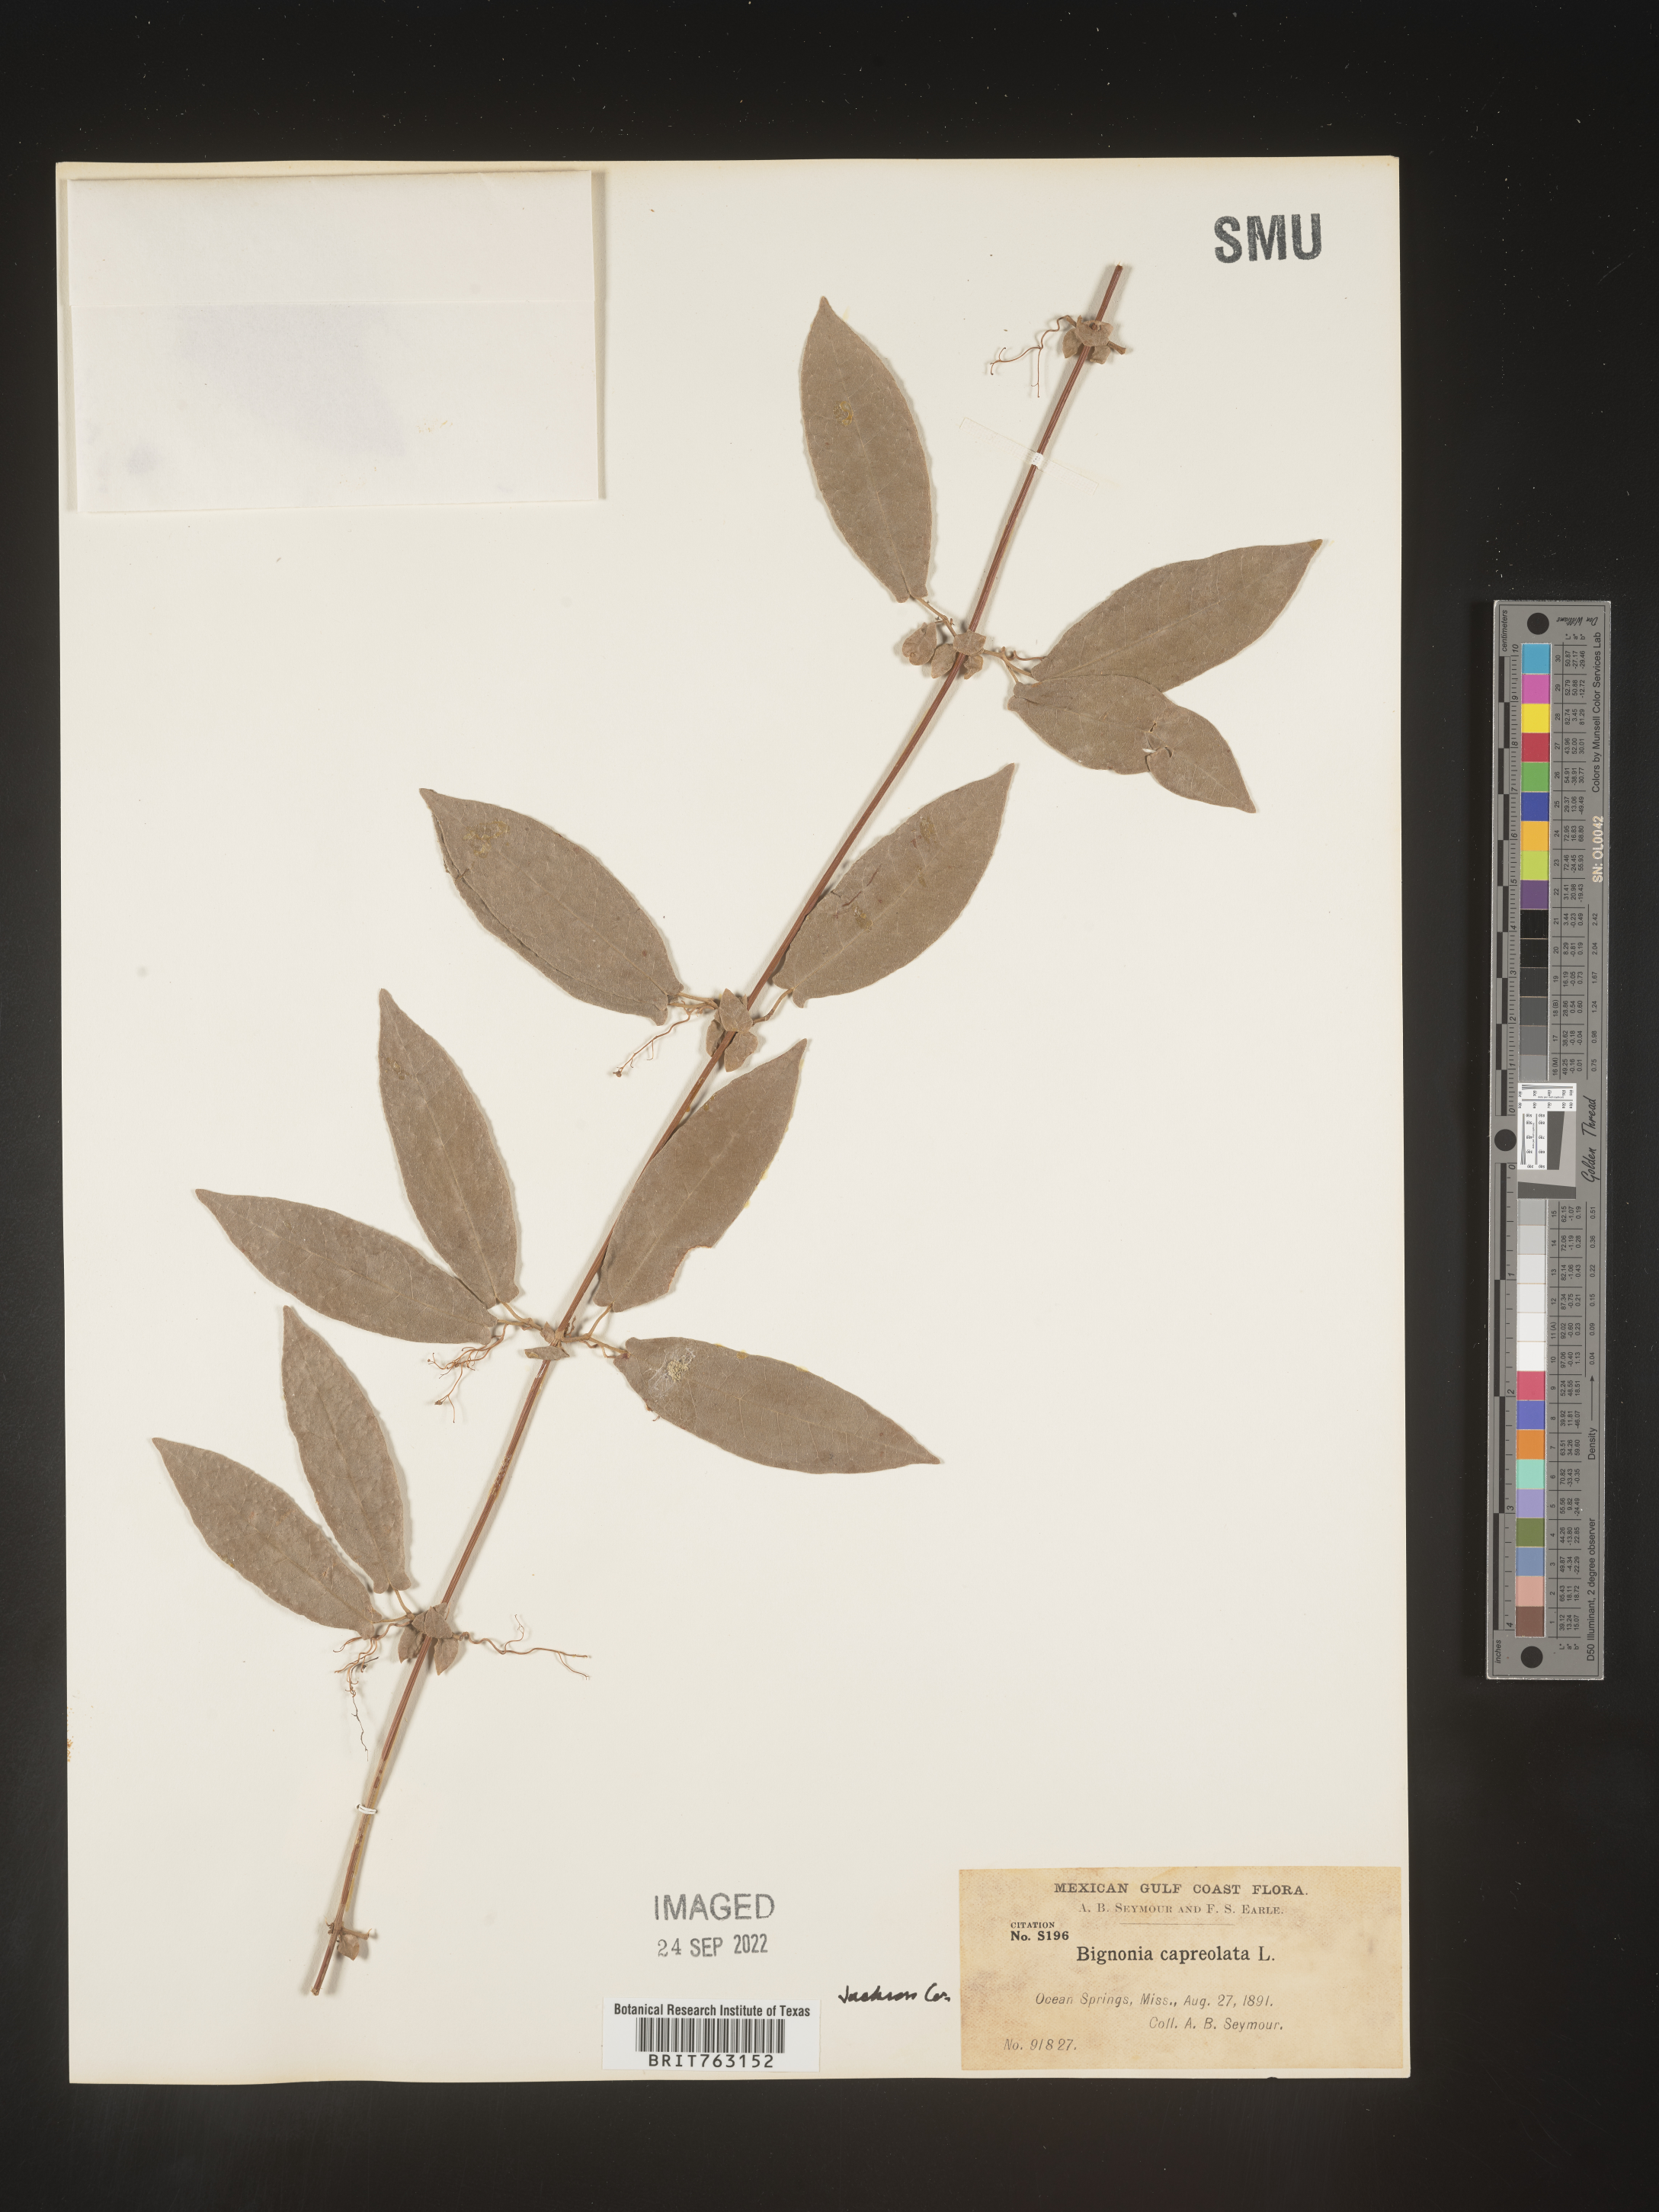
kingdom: Plantae
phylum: Tracheophyta
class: Magnoliopsida
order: Lamiales
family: Bignoniaceae
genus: Bignonia
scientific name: Bignonia capreolata
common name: Crossvine
